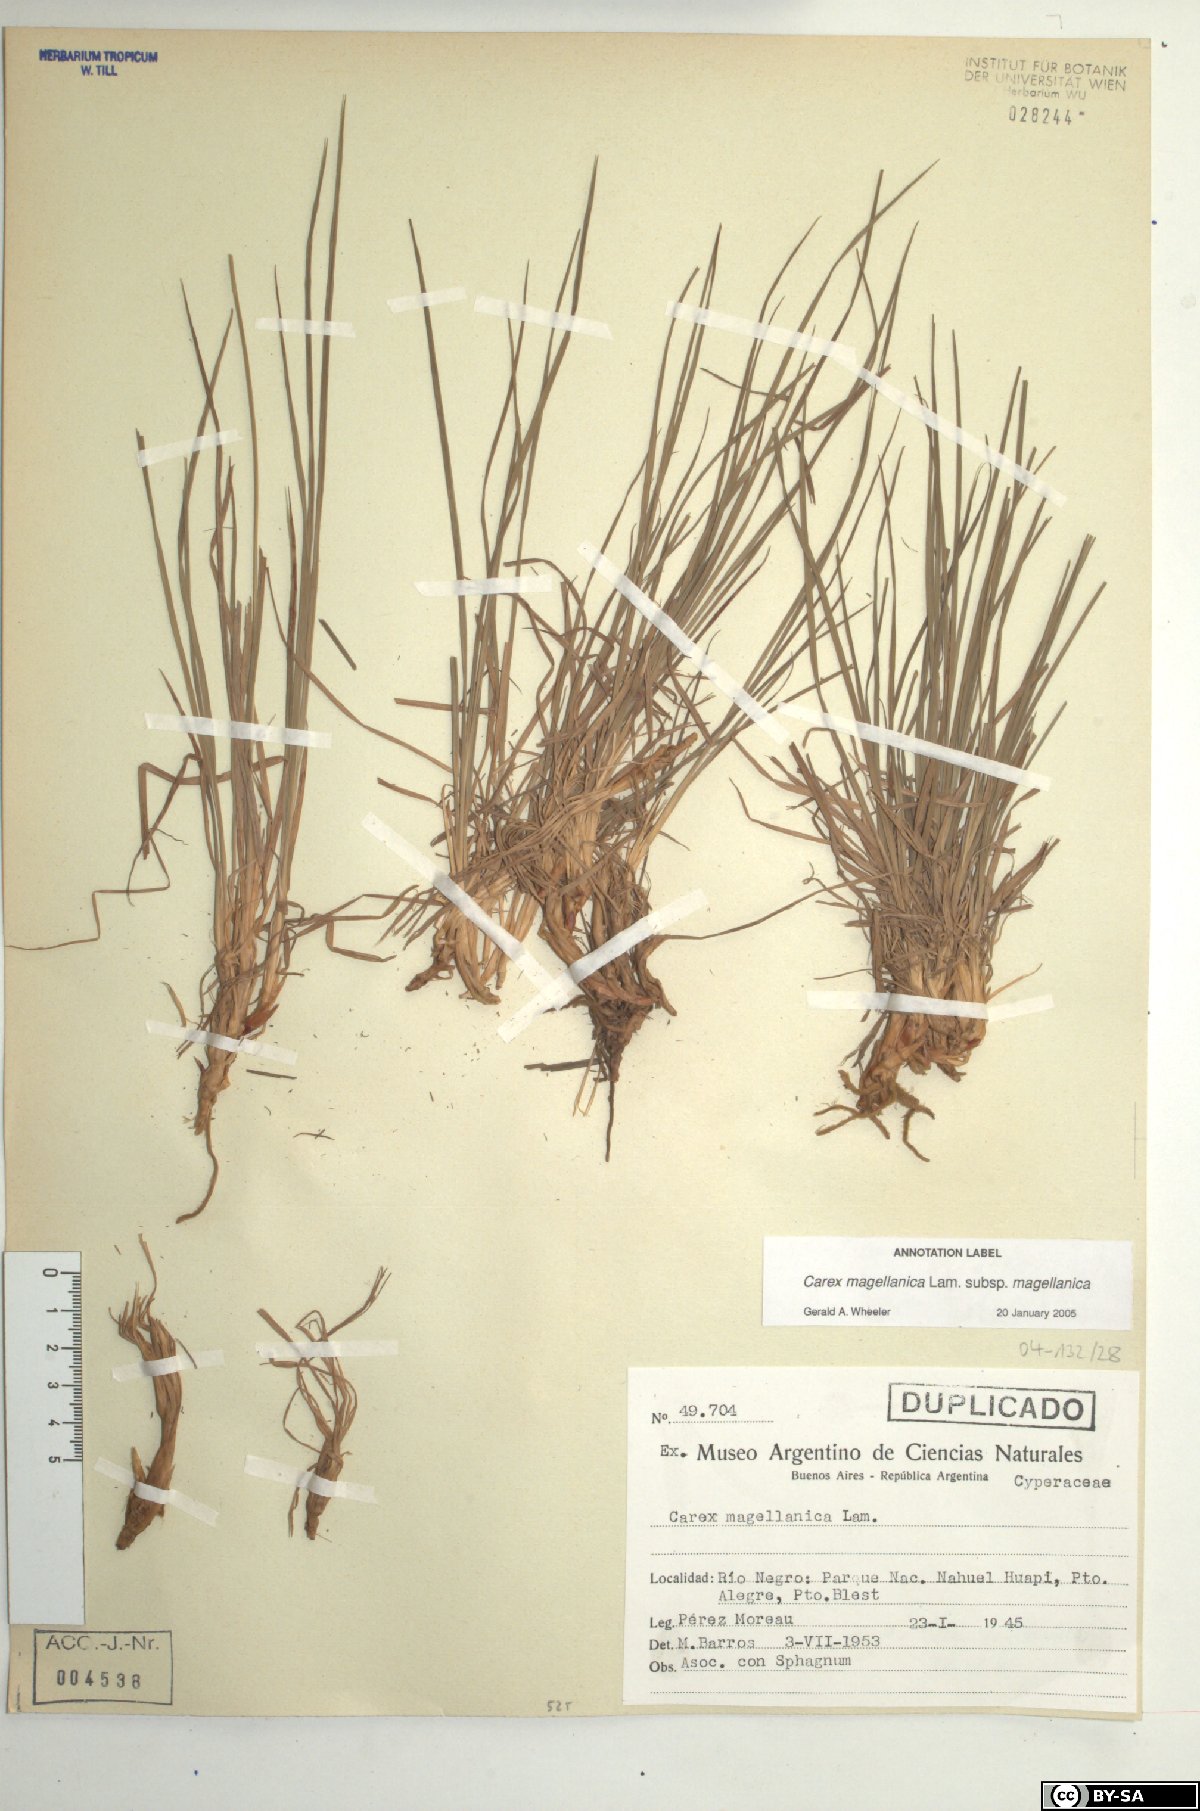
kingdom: Plantae
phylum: Tracheophyta
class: Liliopsida
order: Poales
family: Cyperaceae
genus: Carex
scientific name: Carex magellanica
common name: Bog sedge
